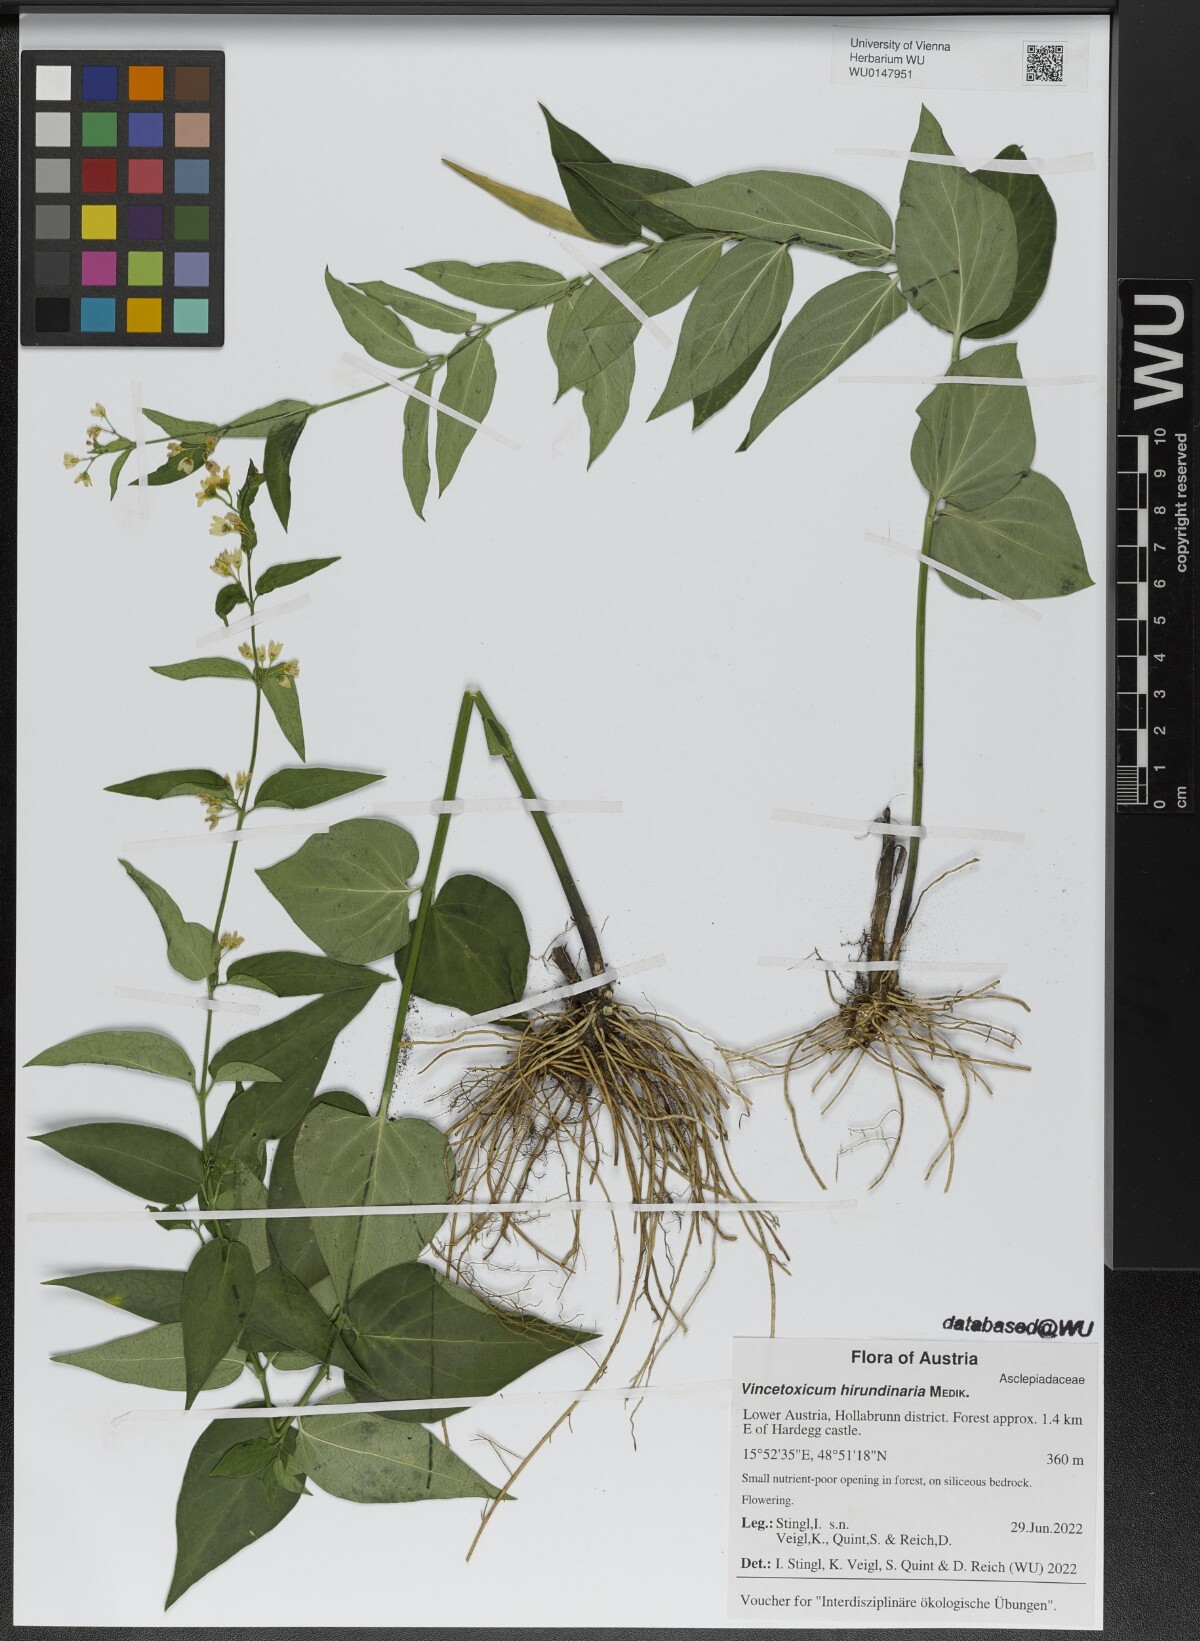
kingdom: Plantae
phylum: Tracheophyta
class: Magnoliopsida
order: Gentianales
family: Apocynaceae
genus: Vincetoxicum
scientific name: Vincetoxicum hirundinaria
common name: White swallowwort
